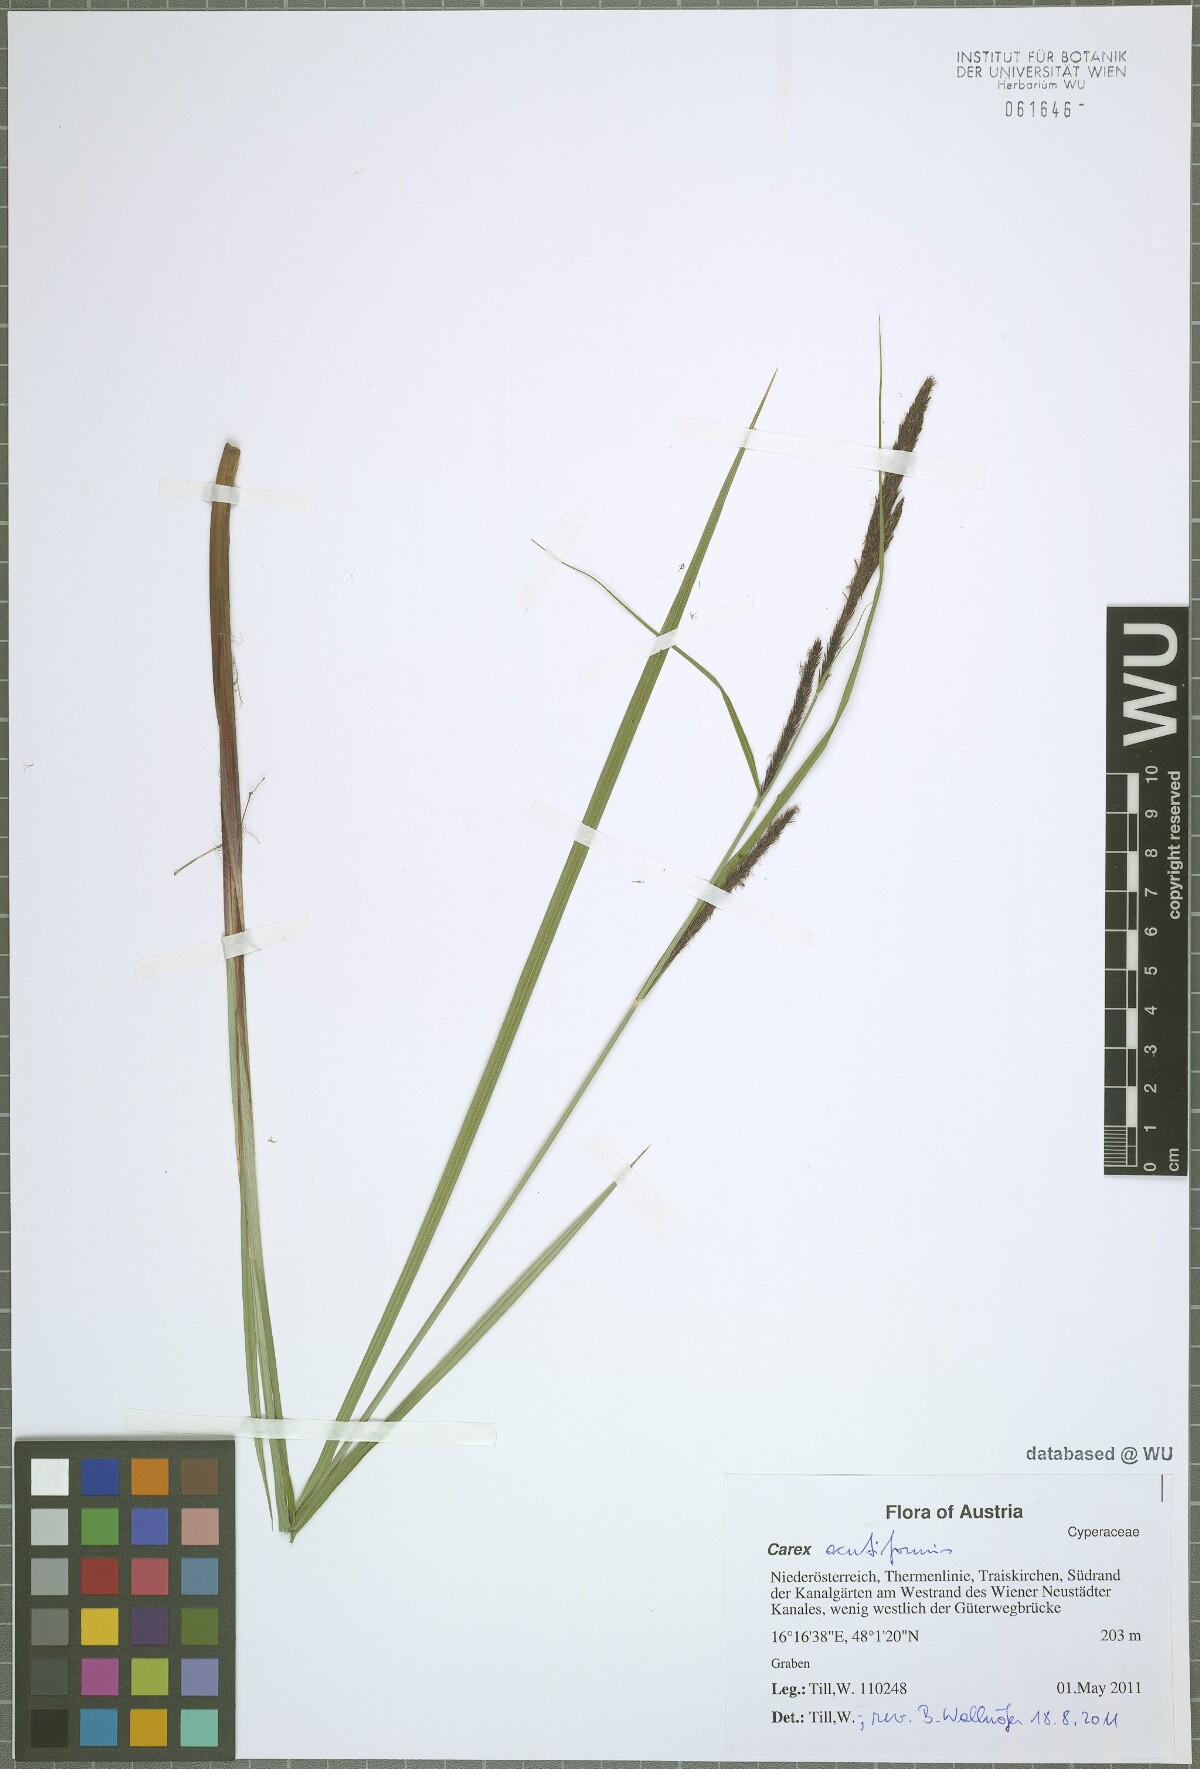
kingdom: Plantae
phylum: Tracheophyta
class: Liliopsida
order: Poales
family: Cyperaceae
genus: Carex
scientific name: Carex acutiformis
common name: Lesser pond-sedge
